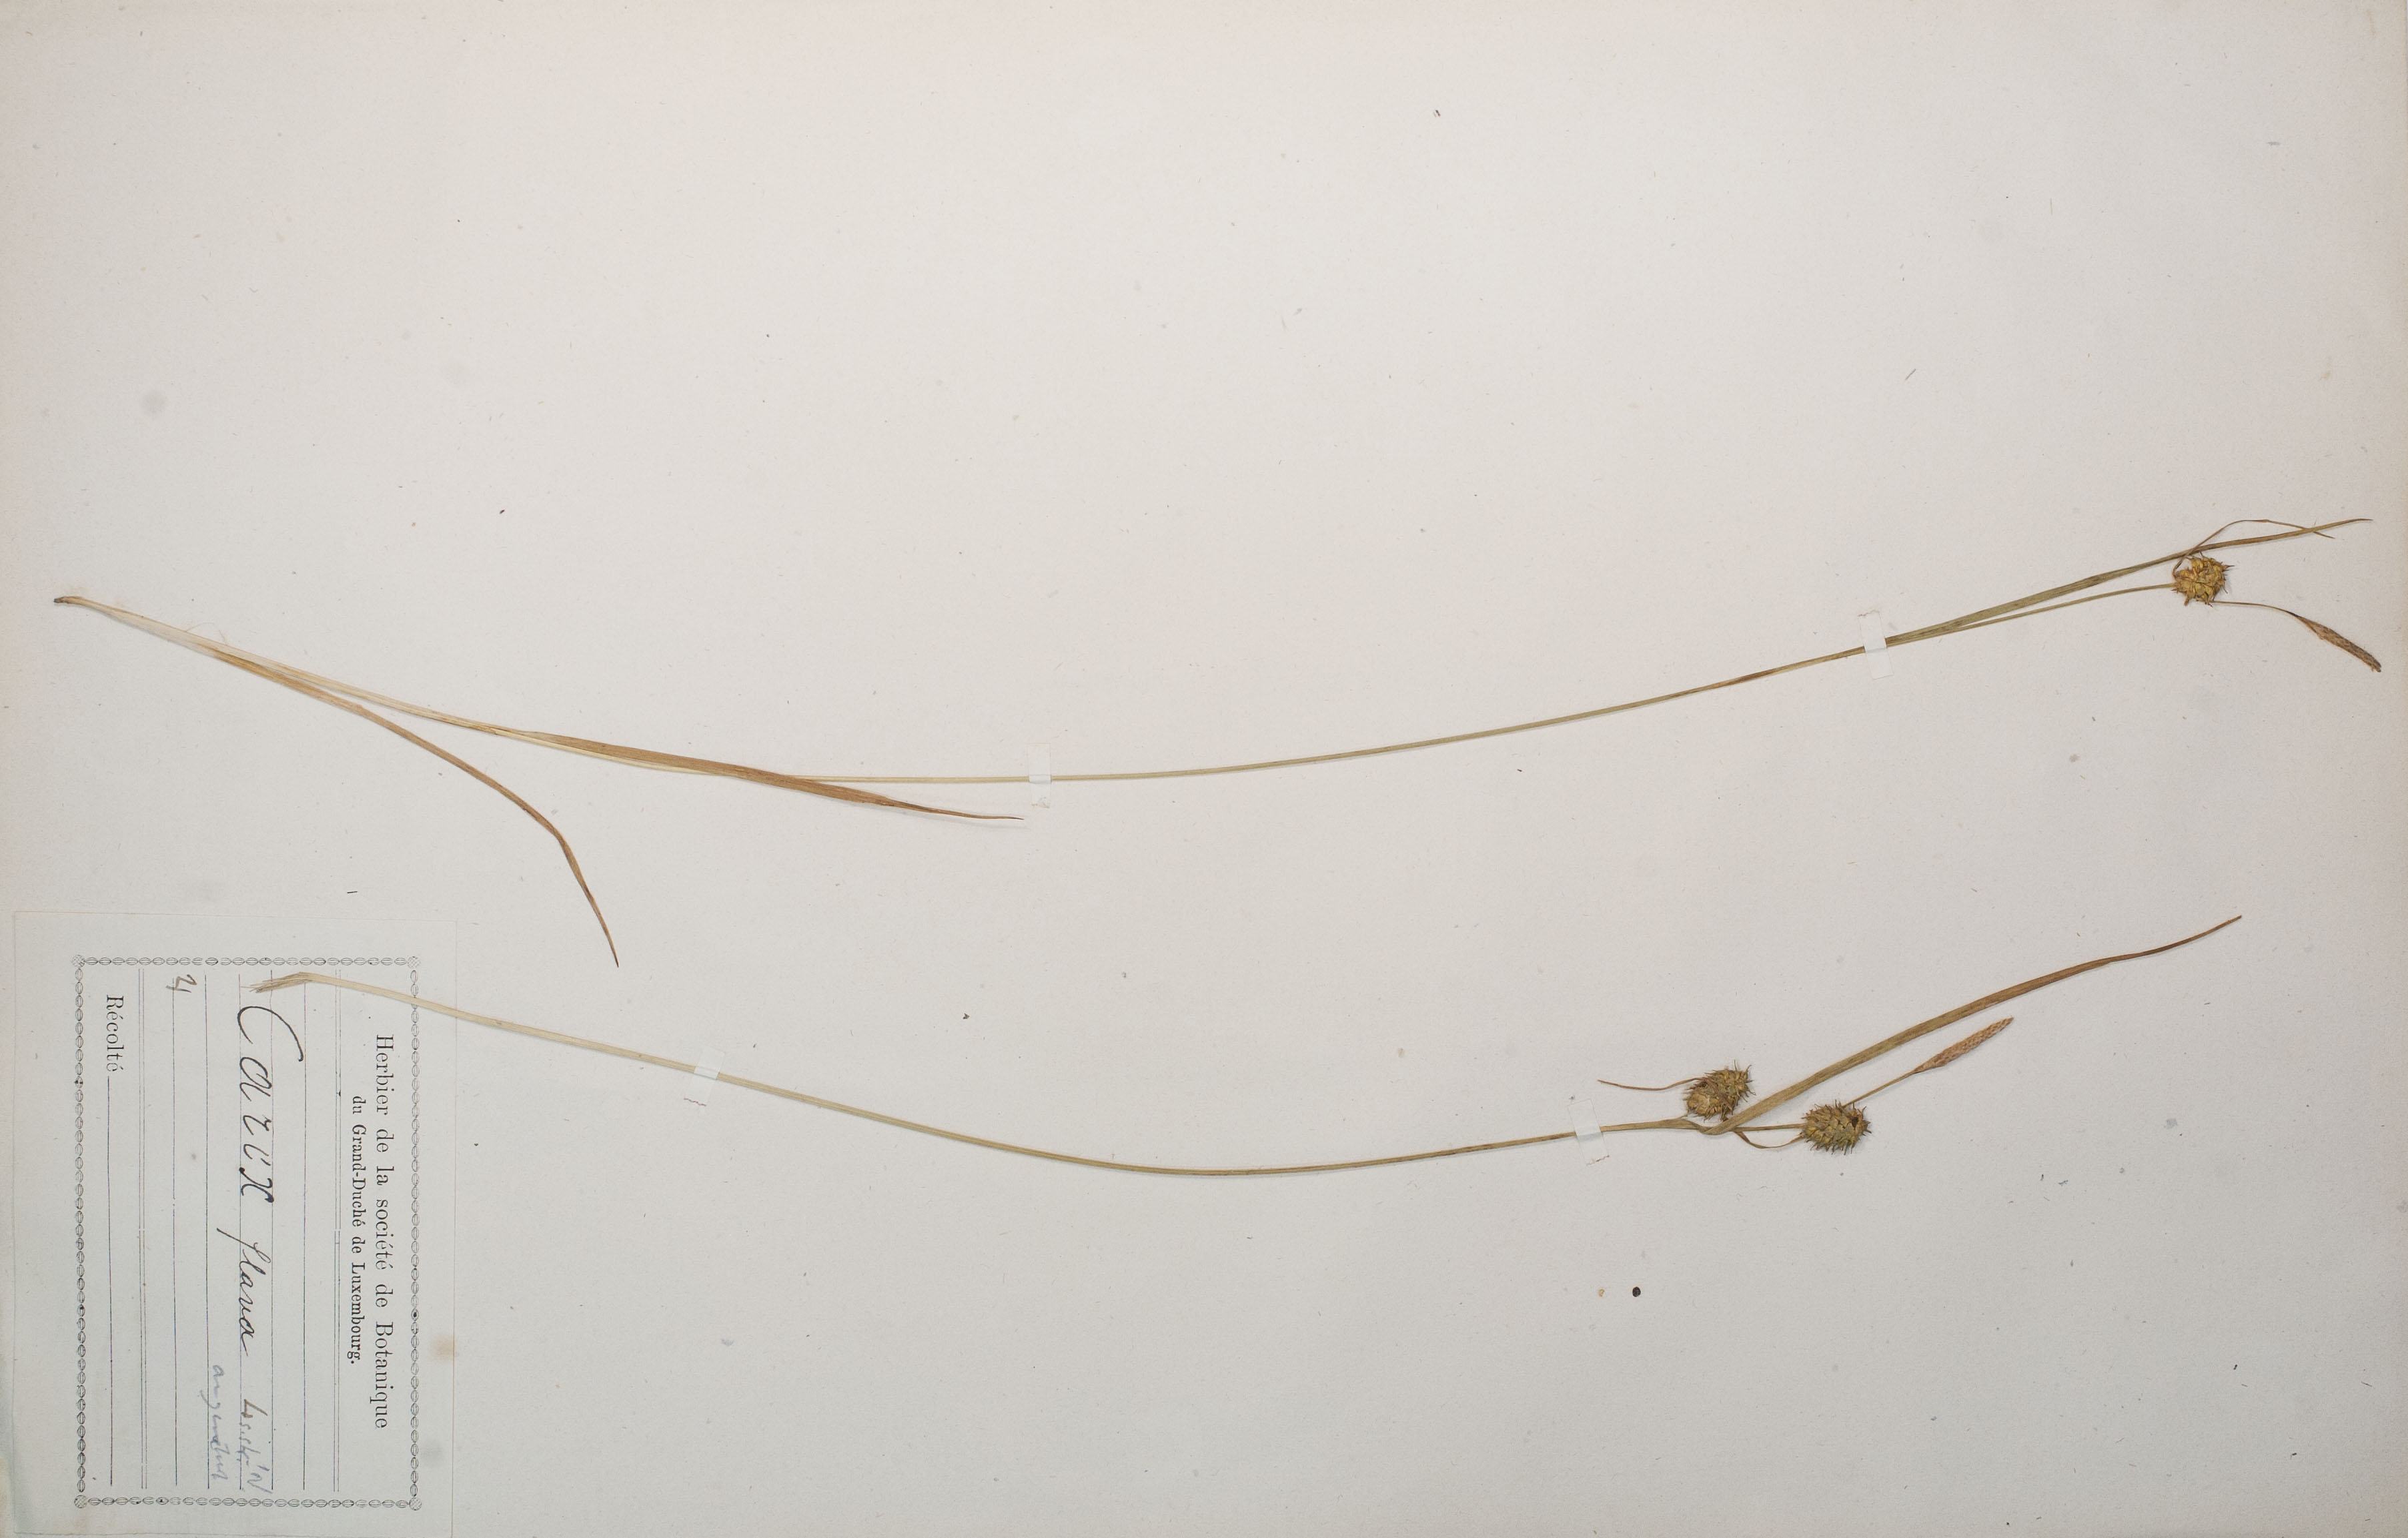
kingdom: Plantae
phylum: Tracheophyta
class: Liliopsida
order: Poales
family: Cyperaceae
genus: Carex
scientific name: Carex flava
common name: Large yellow-sedge
